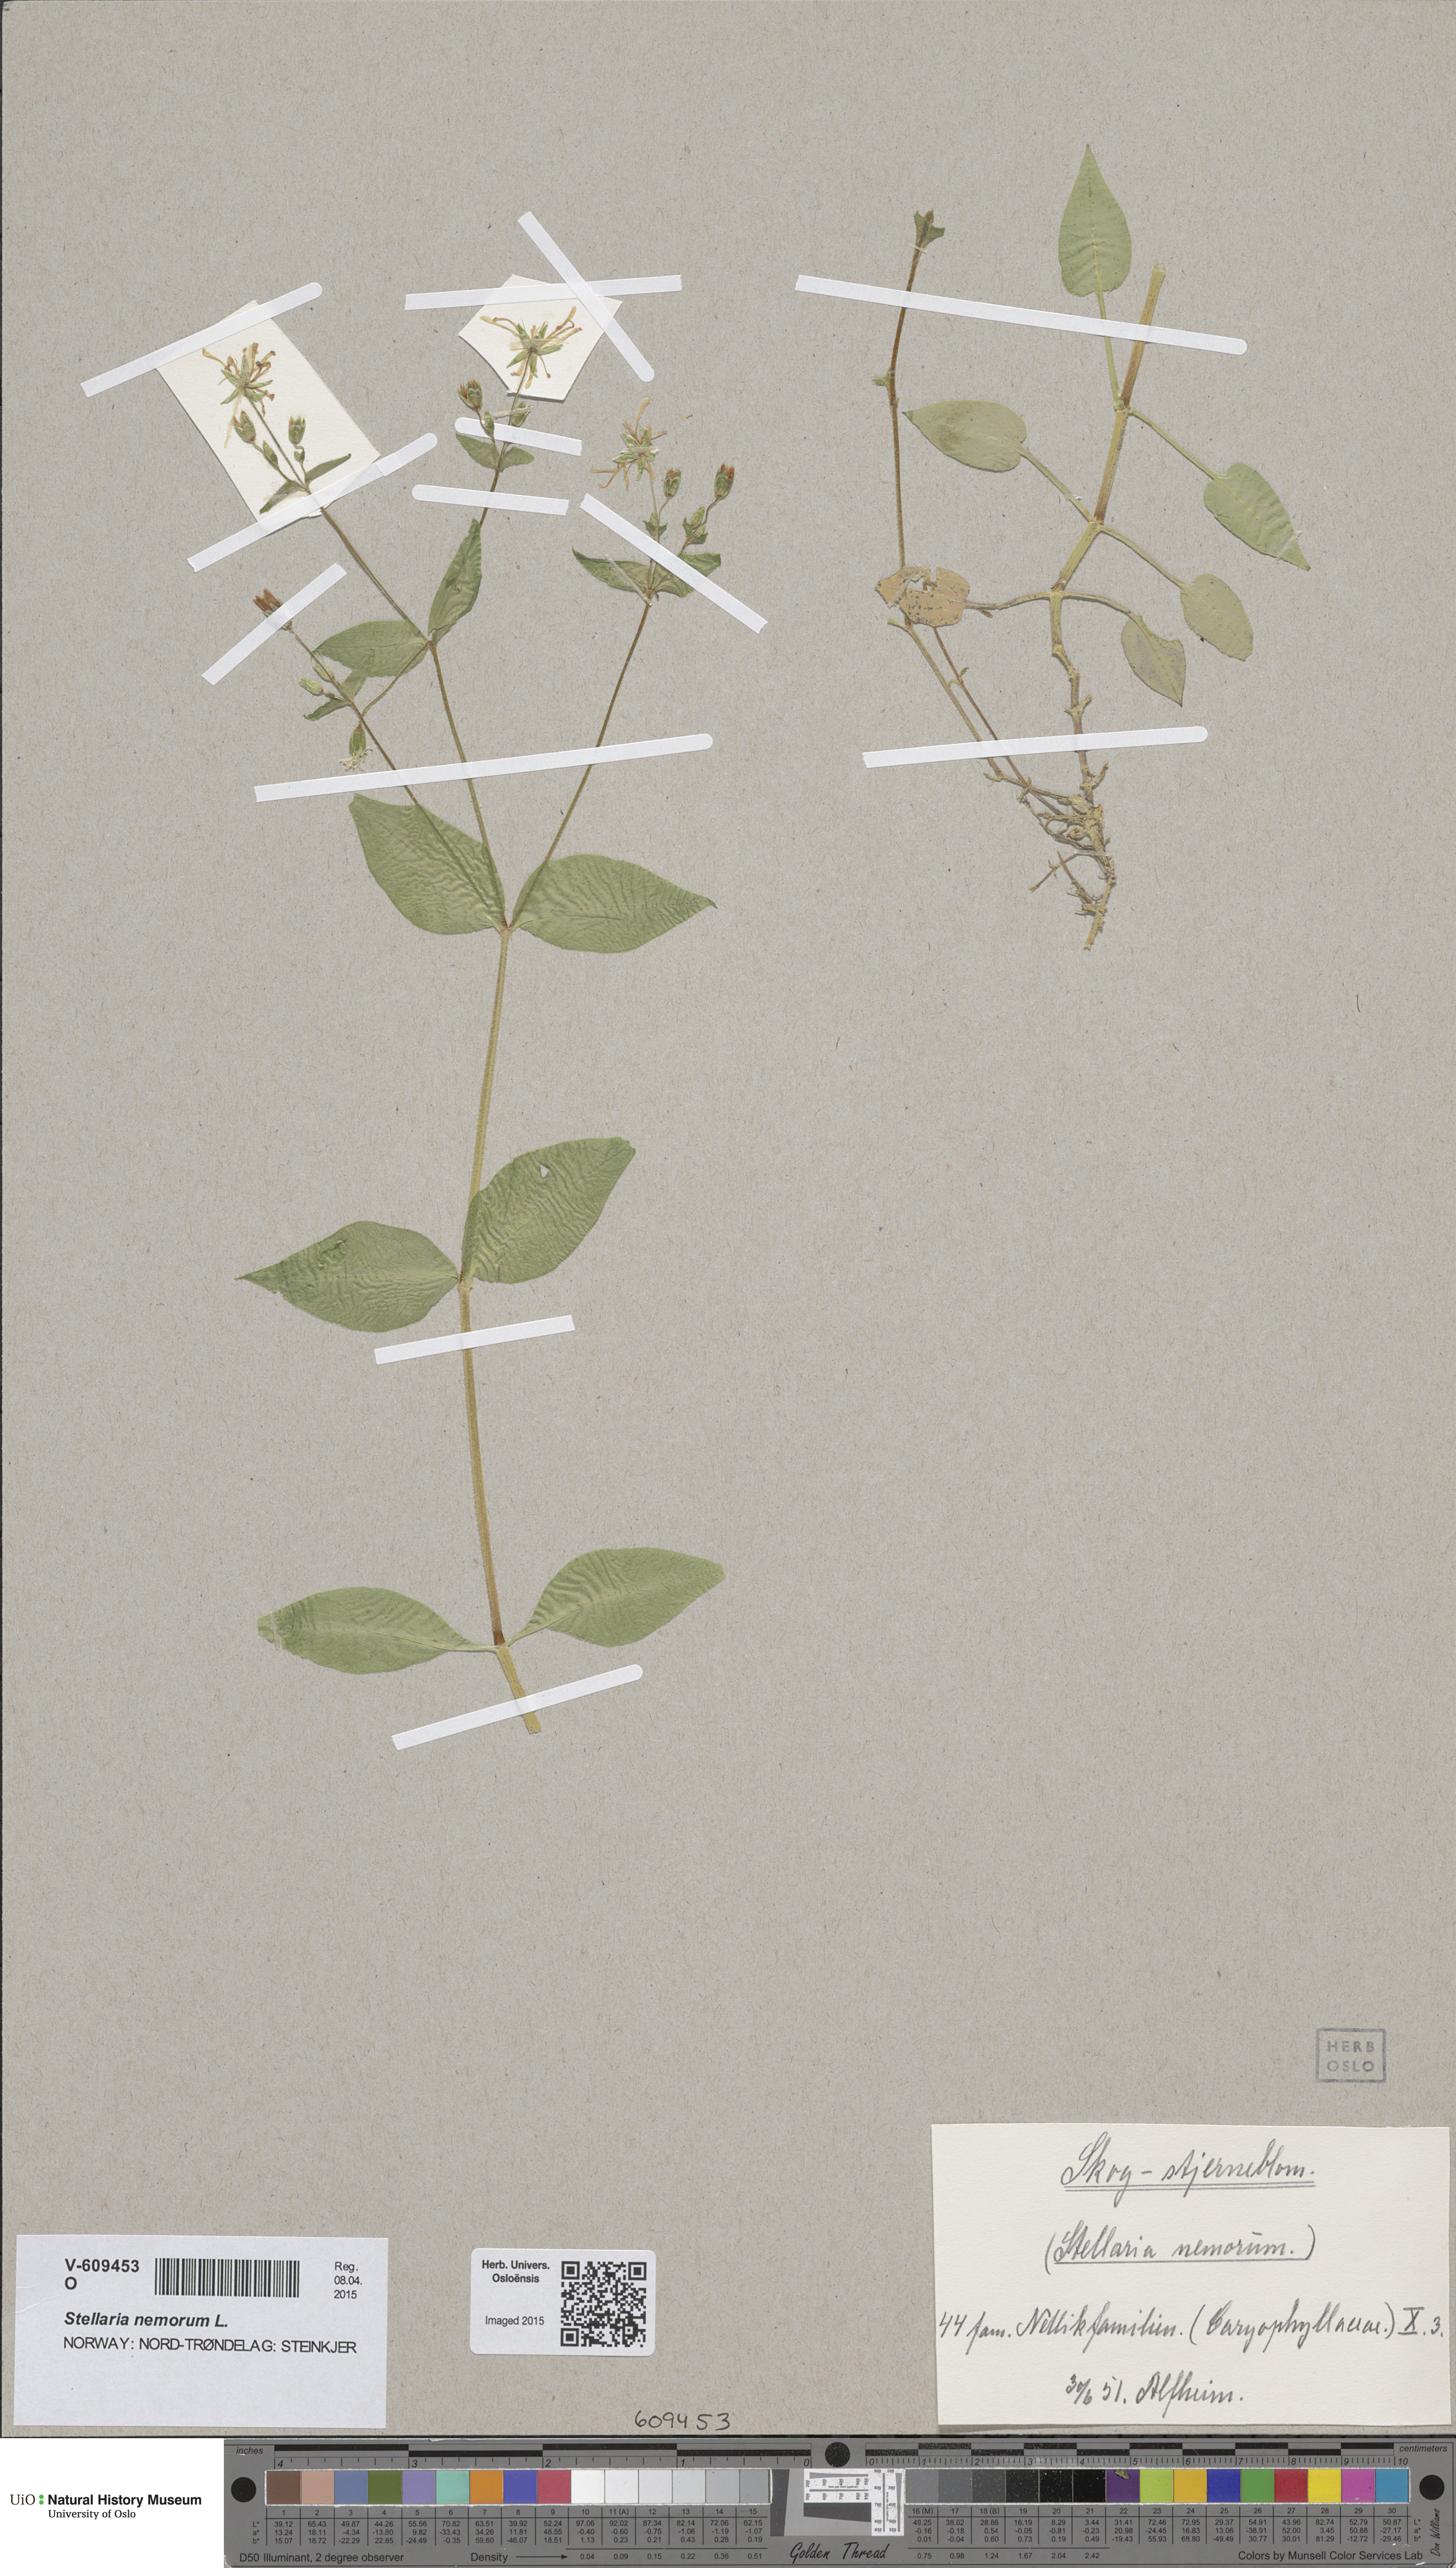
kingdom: Plantae
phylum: Tracheophyta
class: Magnoliopsida
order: Caryophyllales
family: Caryophyllaceae
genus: Stellaria
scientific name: Stellaria nemorum
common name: Wood stitchwort
